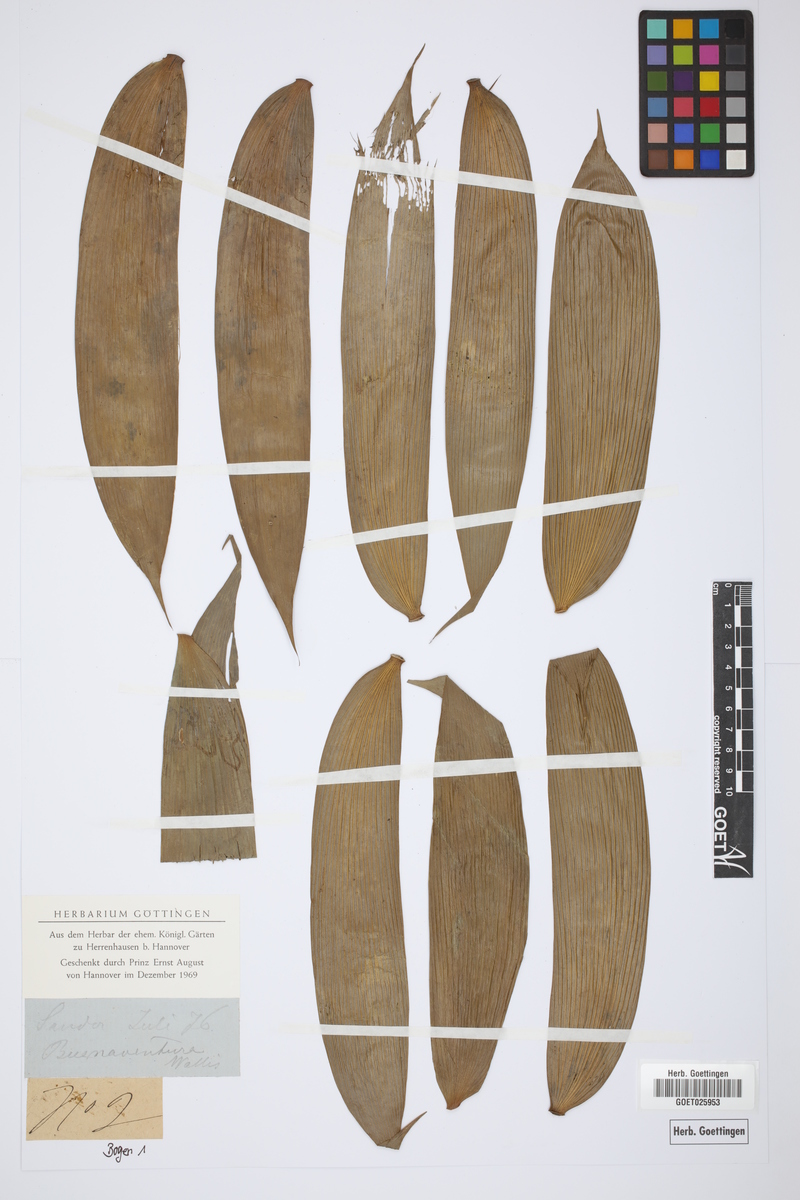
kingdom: Plantae
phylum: Tracheophyta
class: Cycadopsida
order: Cycadales
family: Cycadaceae
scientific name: Cycadaceae
